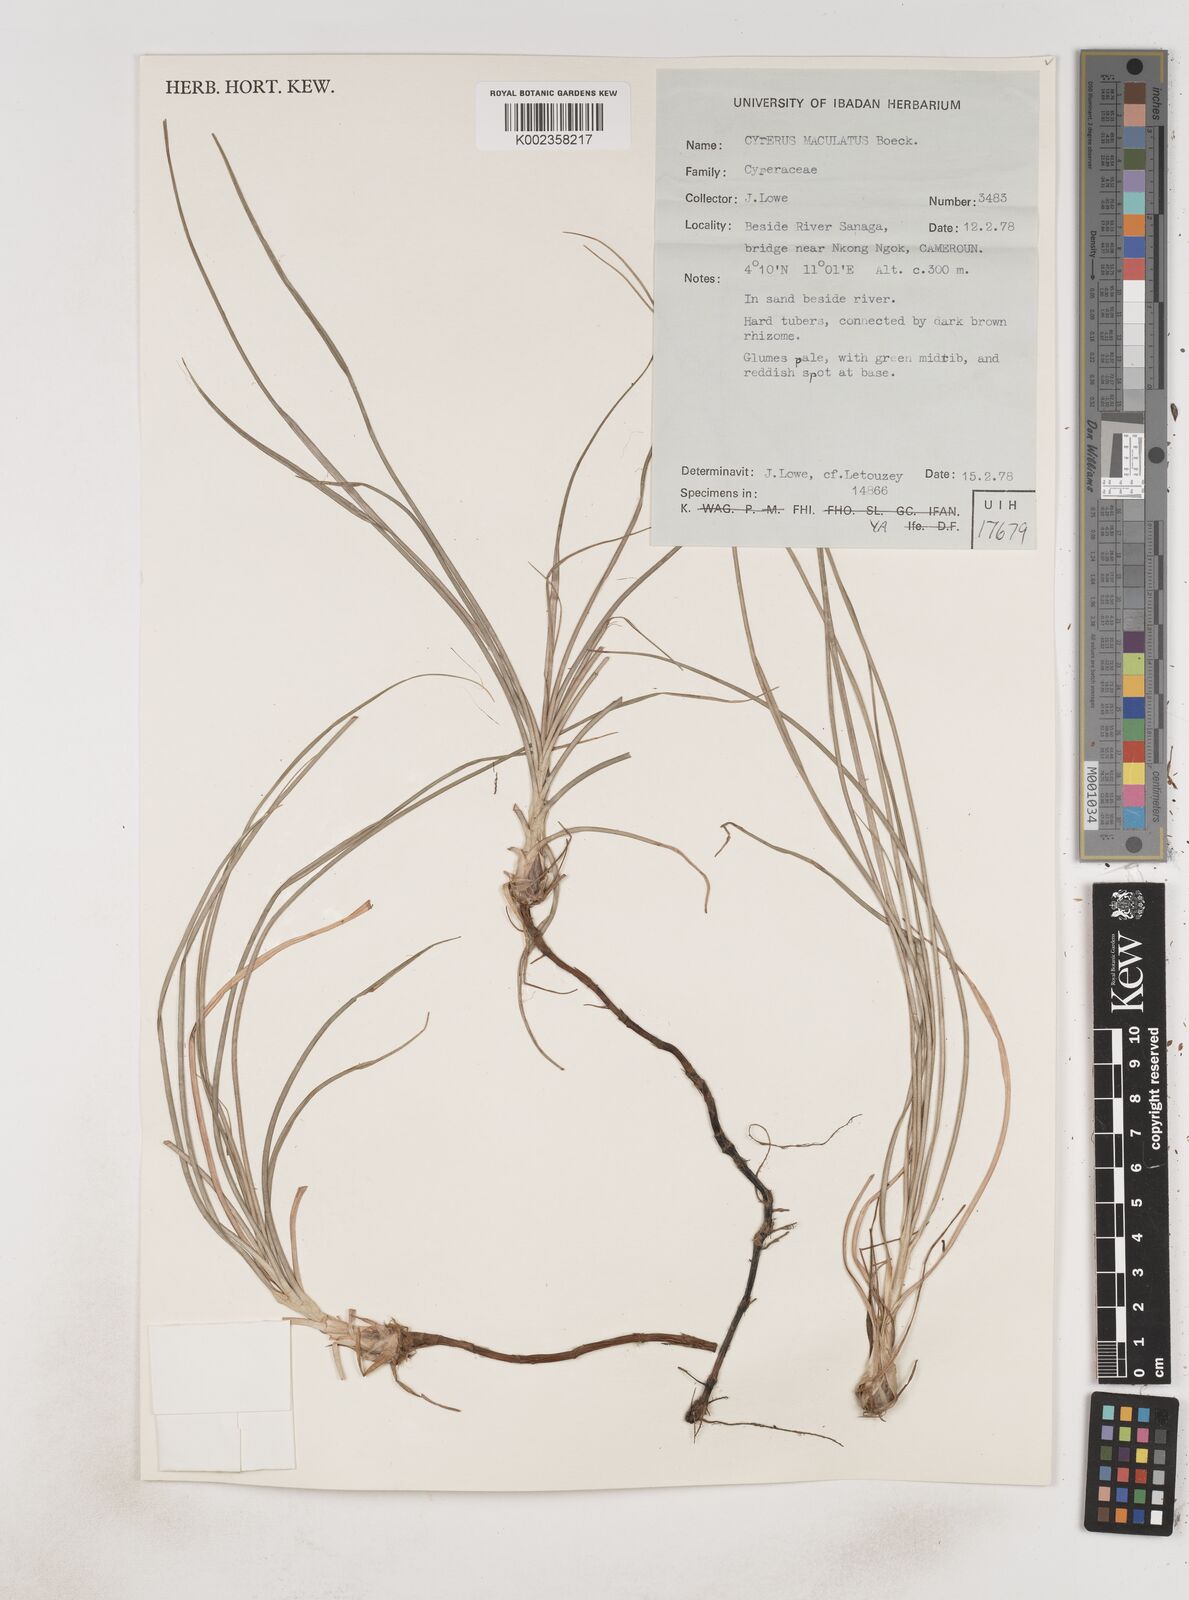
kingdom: Plantae
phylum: Tracheophyta
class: Liliopsida
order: Poales
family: Cyperaceae
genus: Cyperus
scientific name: Cyperus maculatus
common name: Maculated sedge
